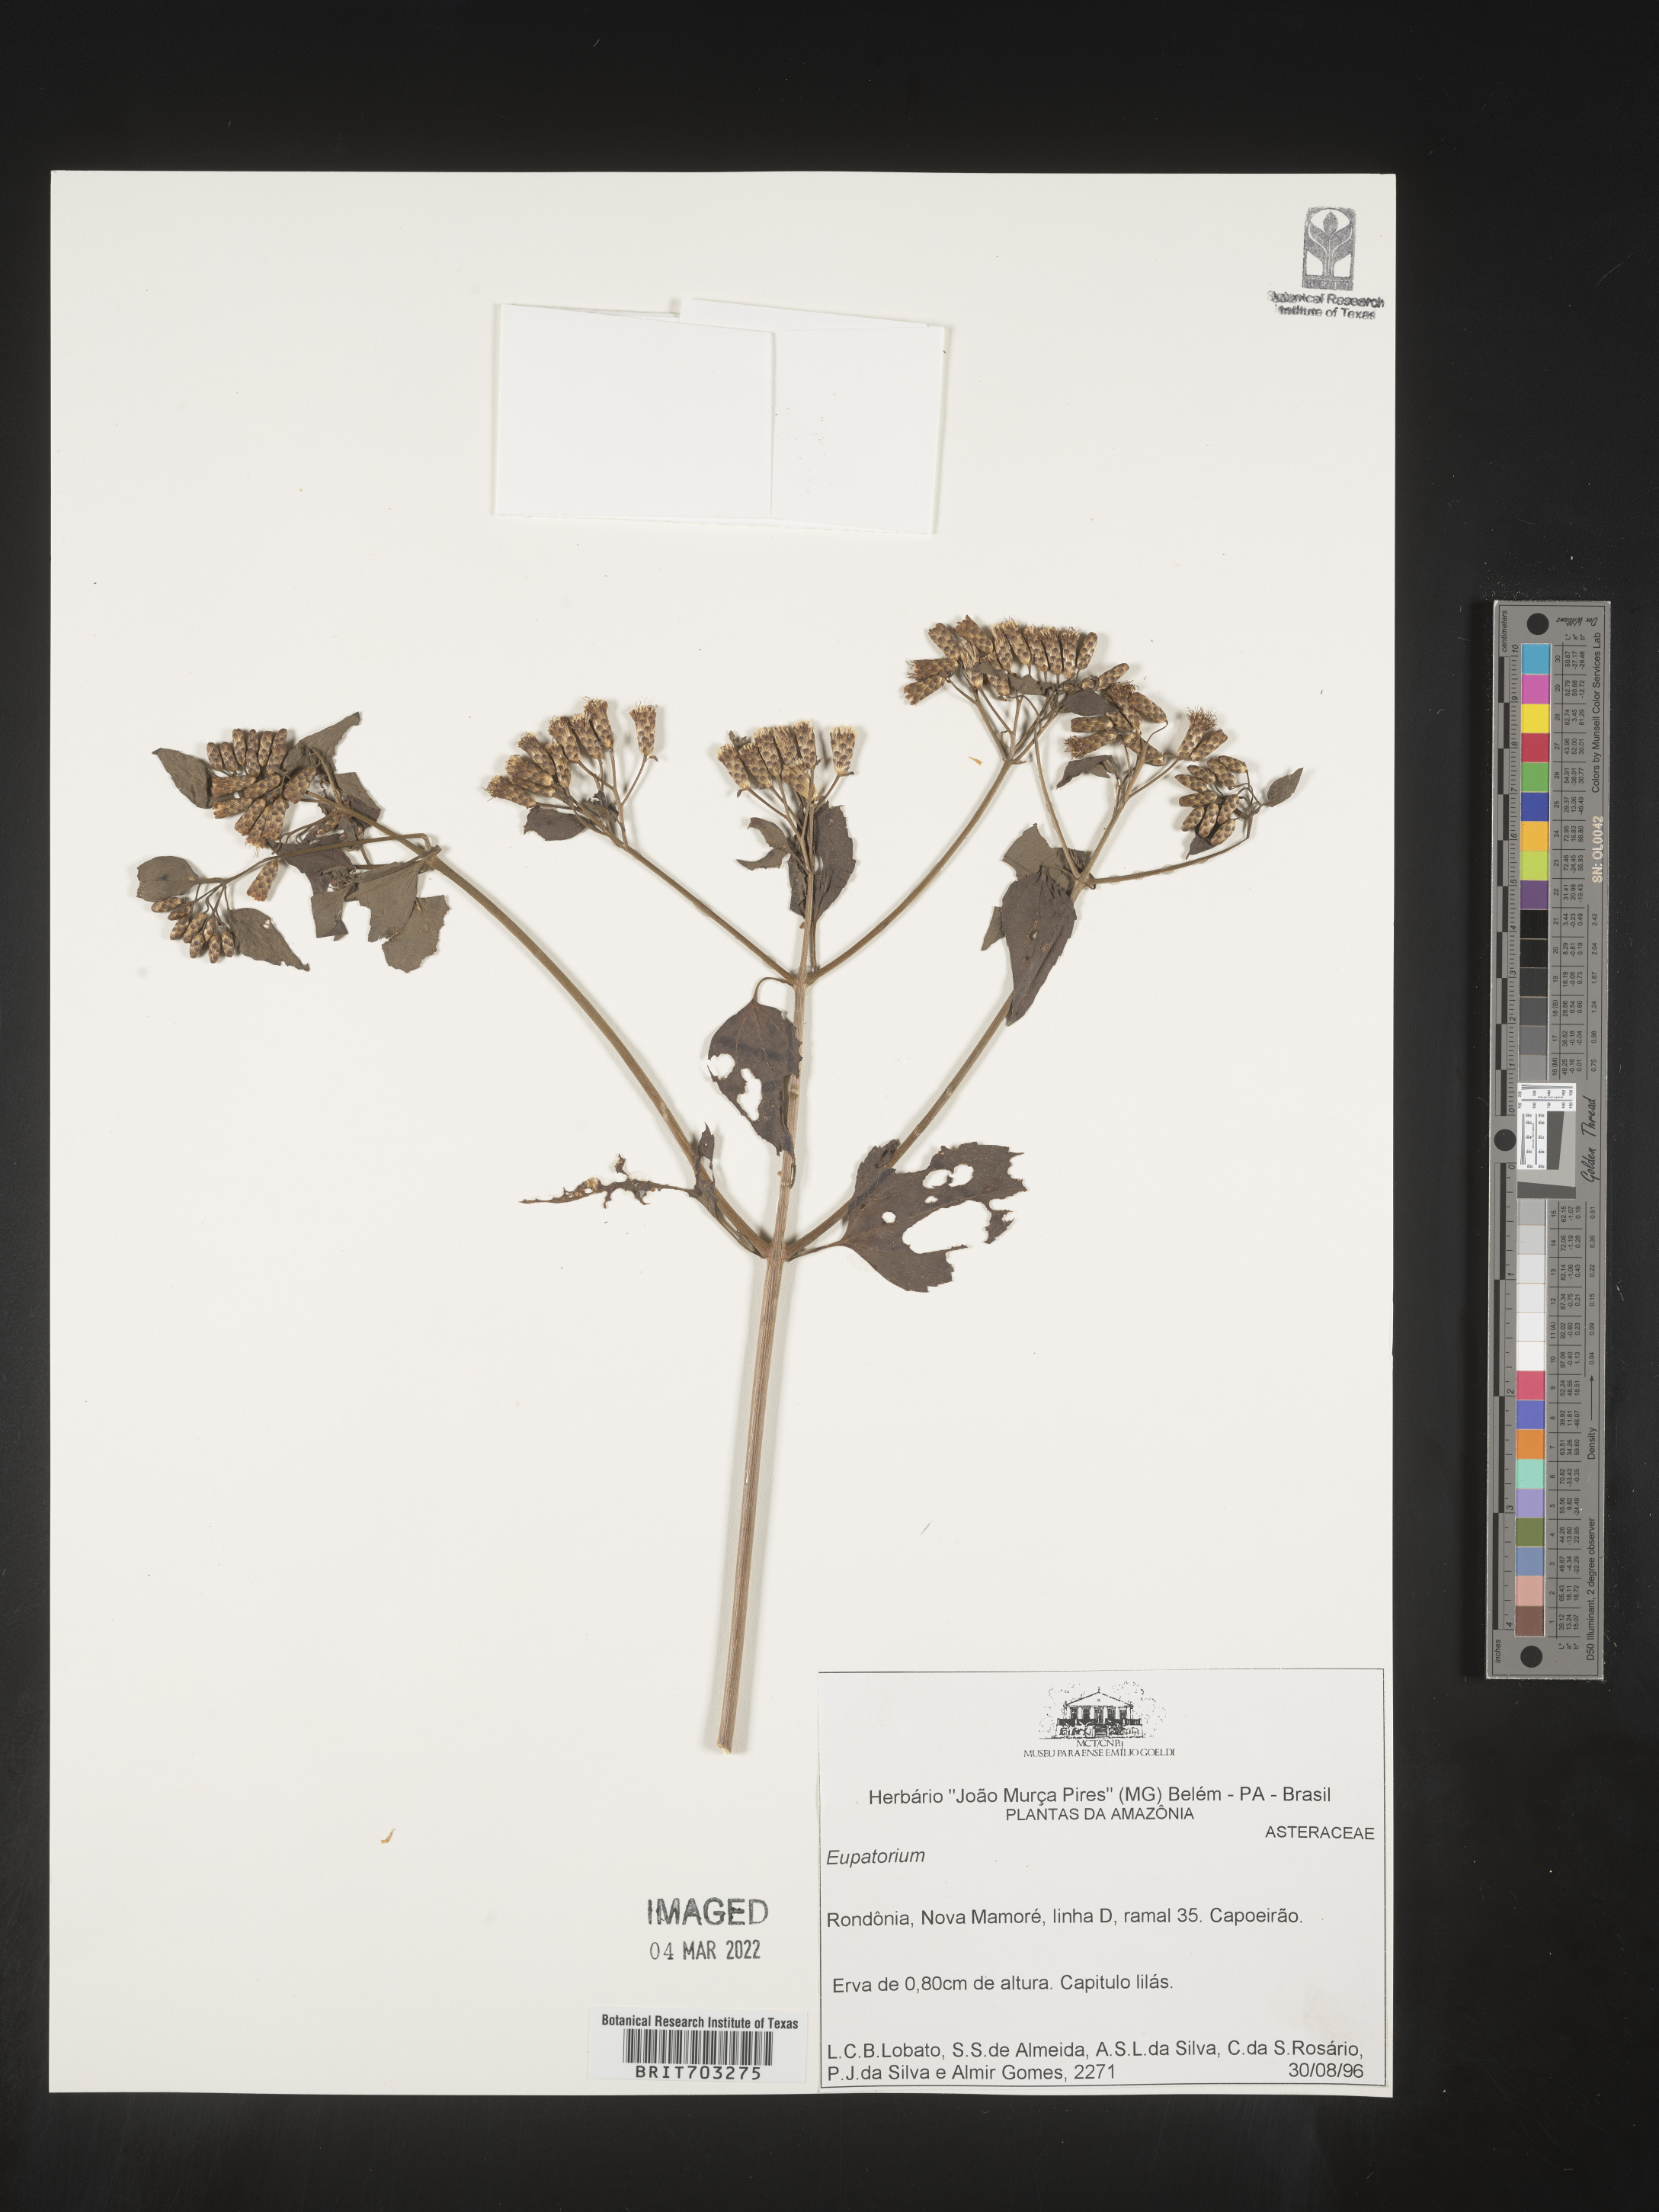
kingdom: Plantae
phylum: Tracheophyta
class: Magnoliopsida
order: Asterales
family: Asteraceae
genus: Eupatorium
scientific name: Eupatorium
